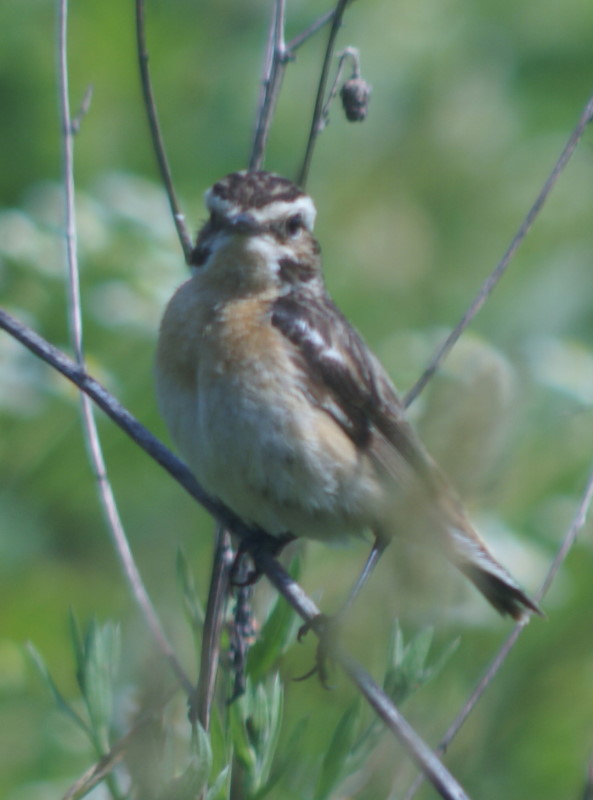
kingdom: Animalia
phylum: Chordata
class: Aves
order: Passeriformes
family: Muscicapidae
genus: Saxicola
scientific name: Saxicola rubetra
